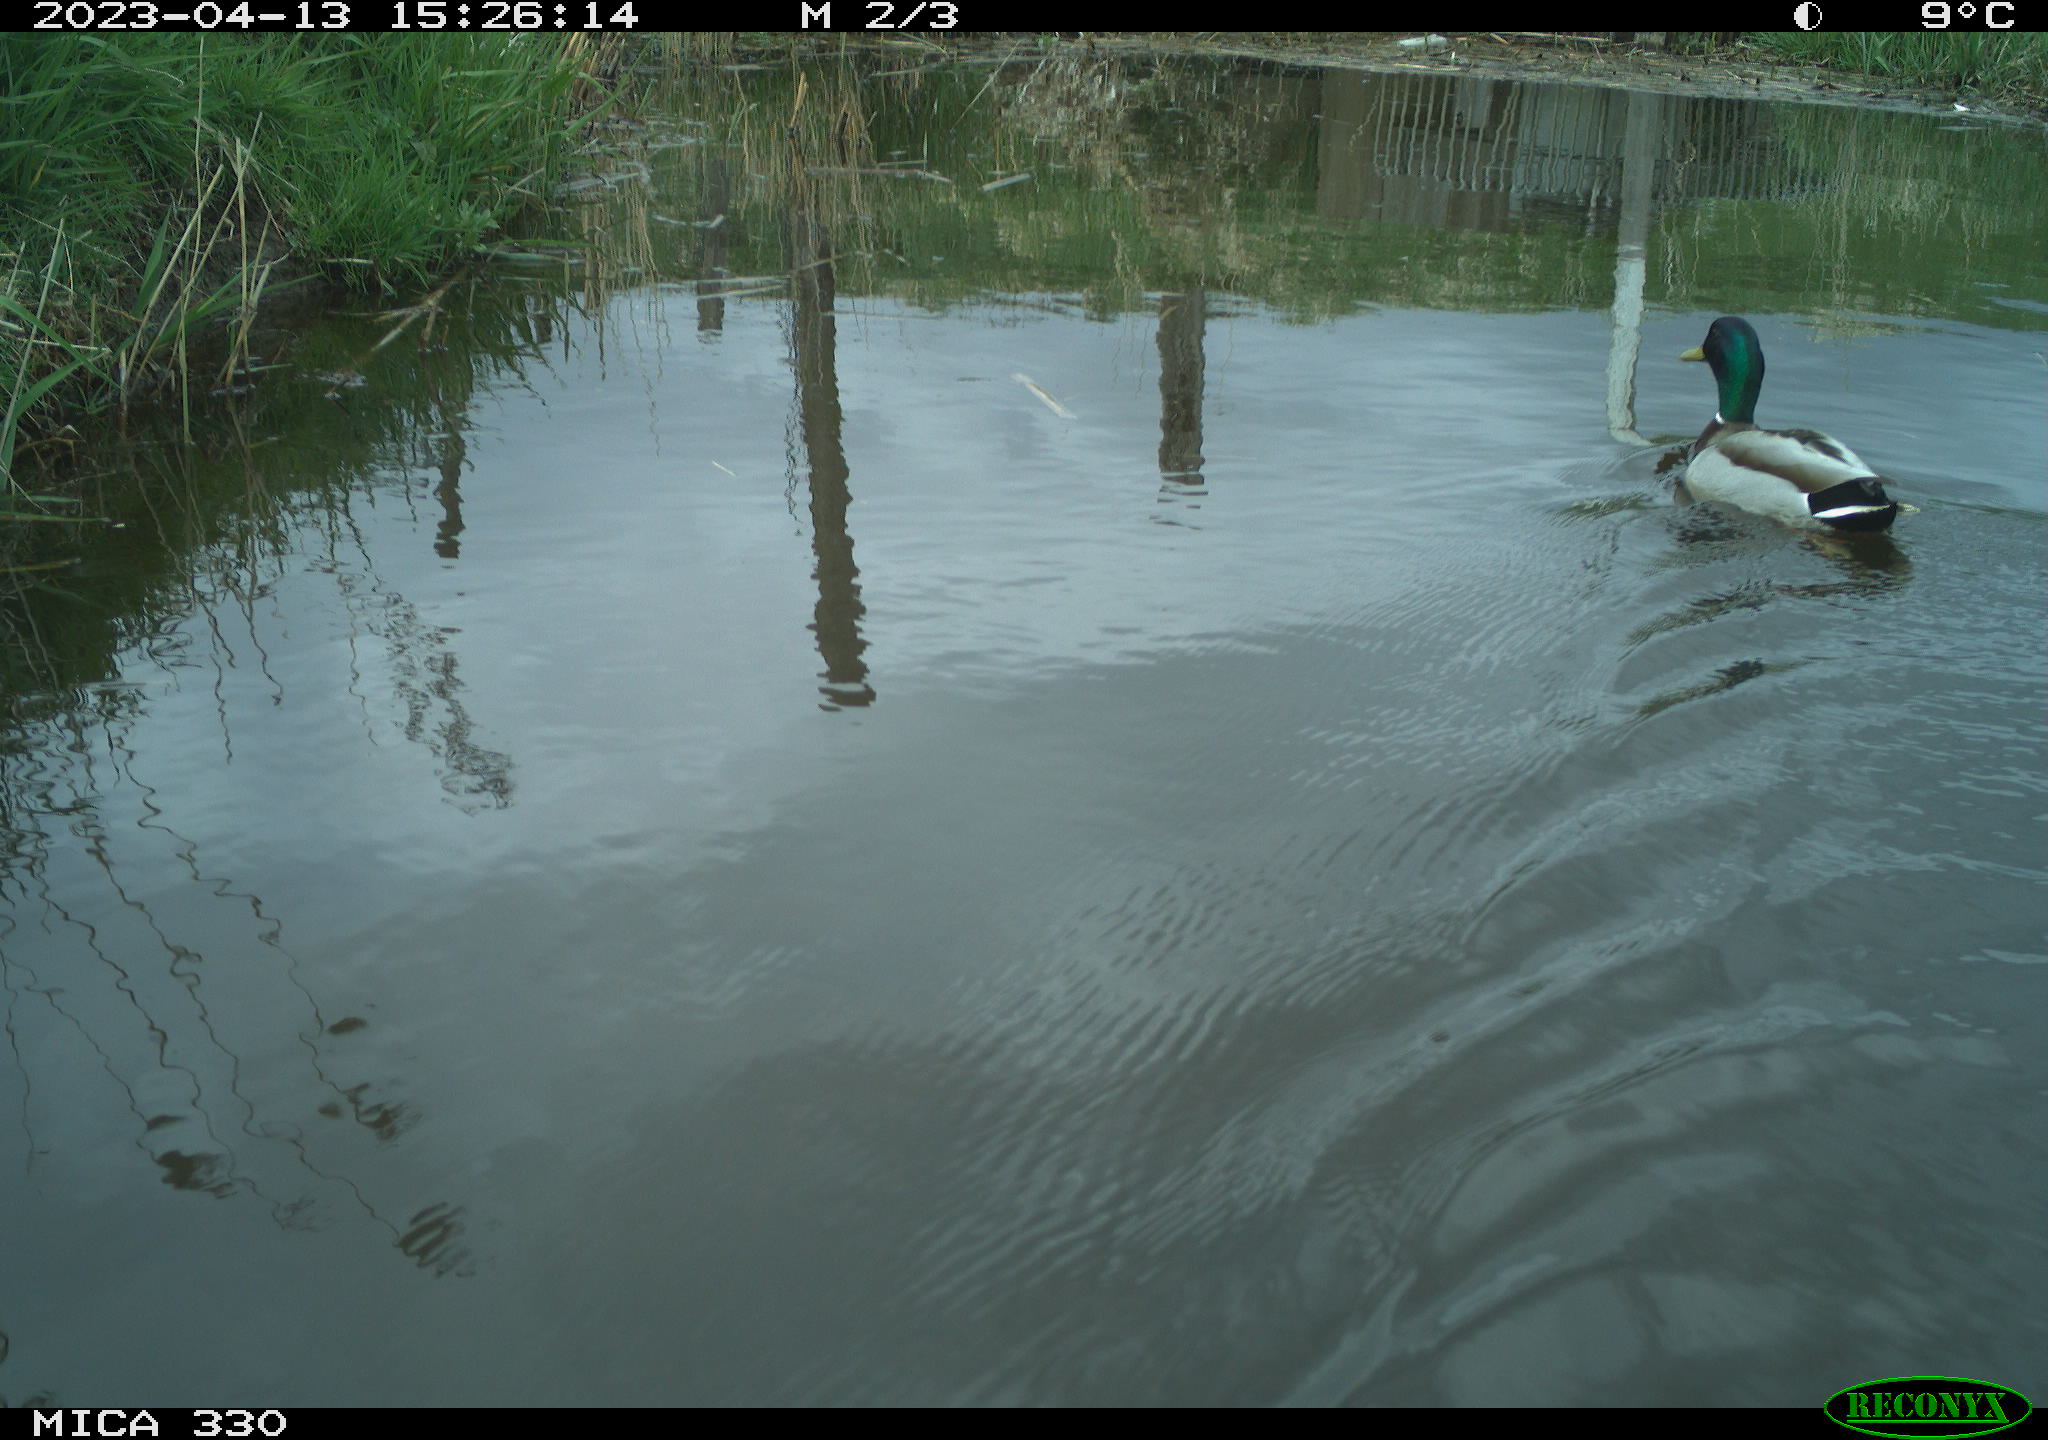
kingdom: Animalia
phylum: Chordata
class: Aves
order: Anseriformes
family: Anatidae
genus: Anas
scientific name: Anas
